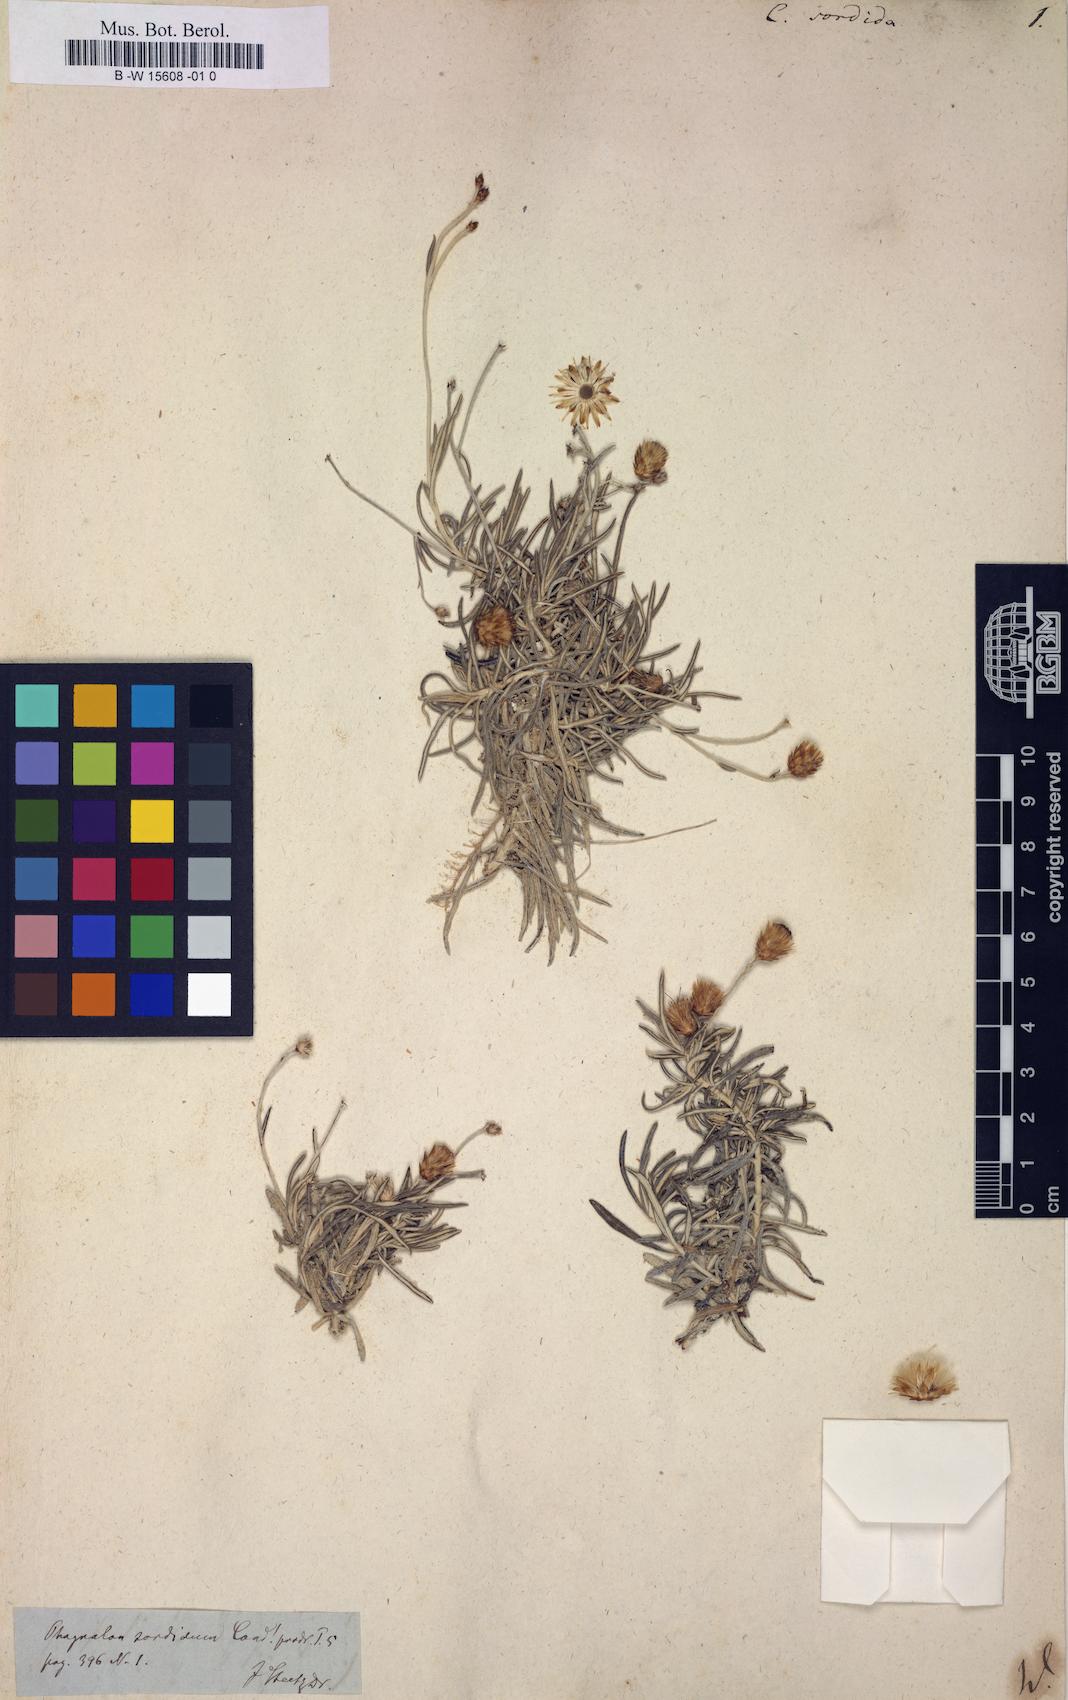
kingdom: Plantae
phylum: Tracheophyta
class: Magnoliopsida
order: Asterales
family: Asteraceae
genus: Phagnalon
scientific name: Phagnalon sordidum
